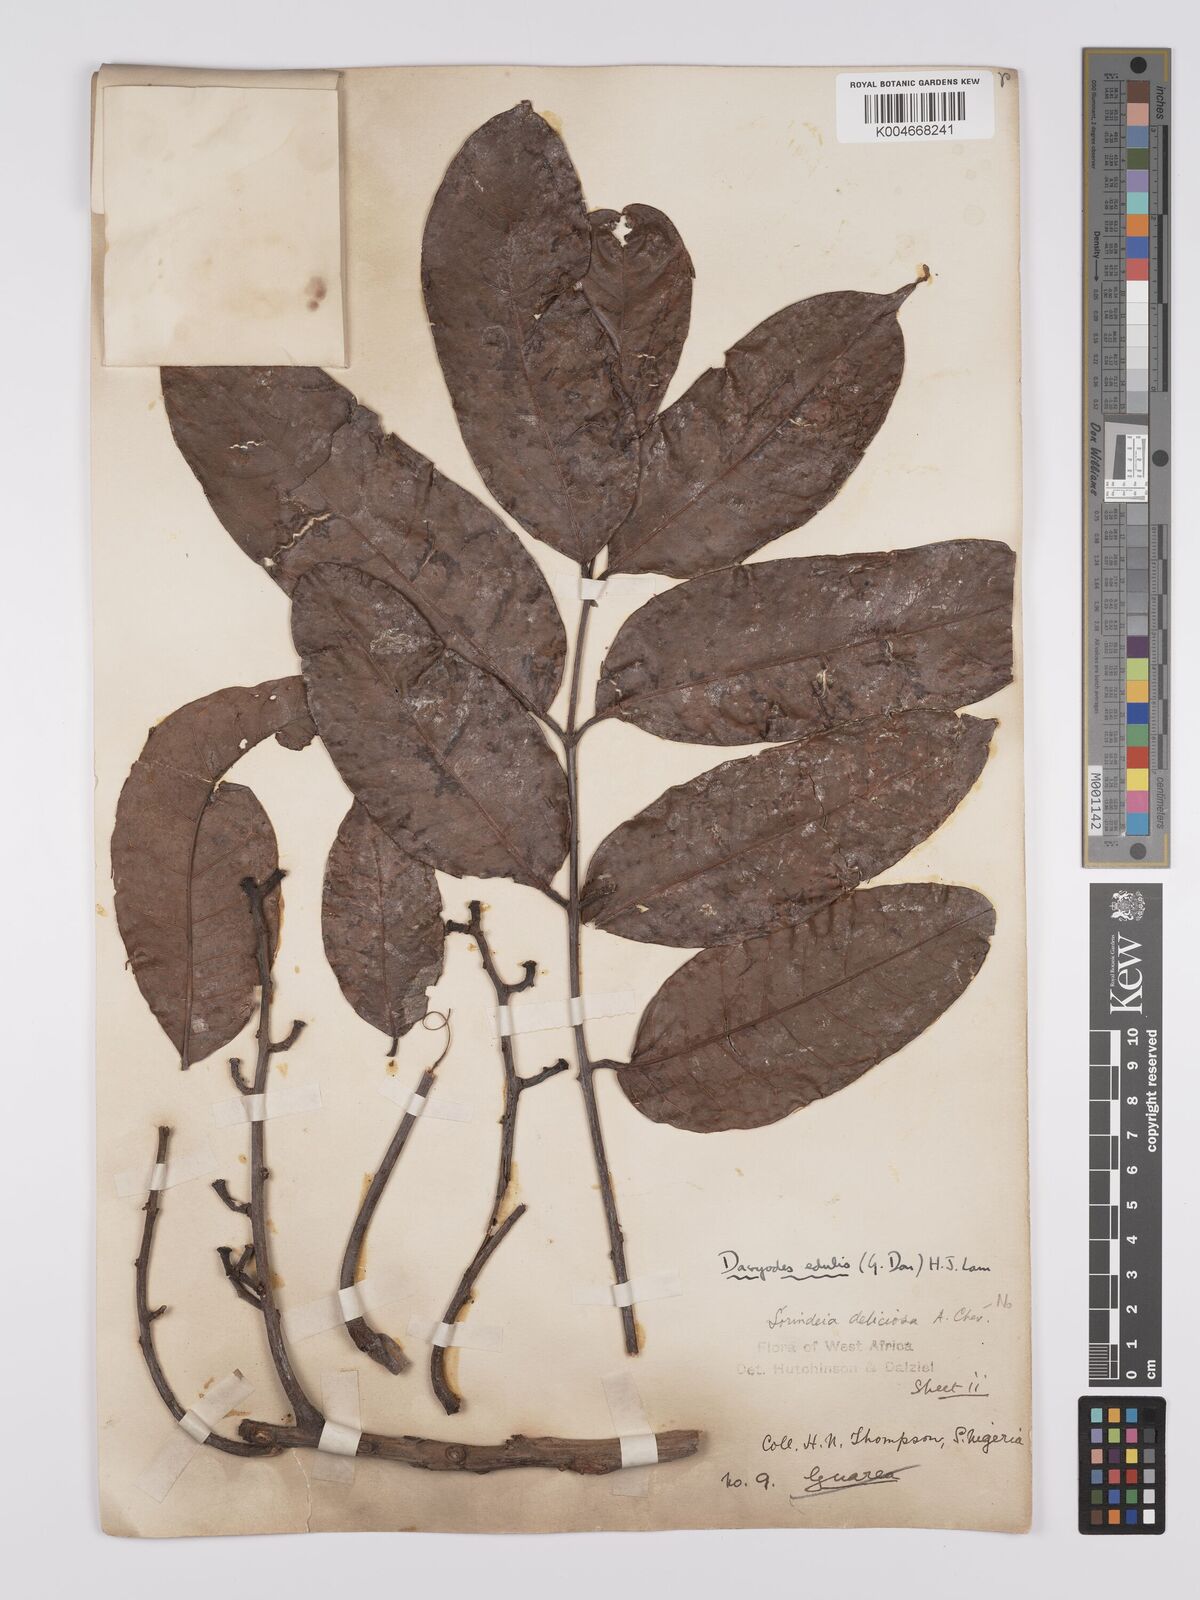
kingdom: Plantae
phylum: Tracheophyta
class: Magnoliopsida
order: Sapindales
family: Burseraceae
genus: Pachylobus
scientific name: Pachylobus edulis
